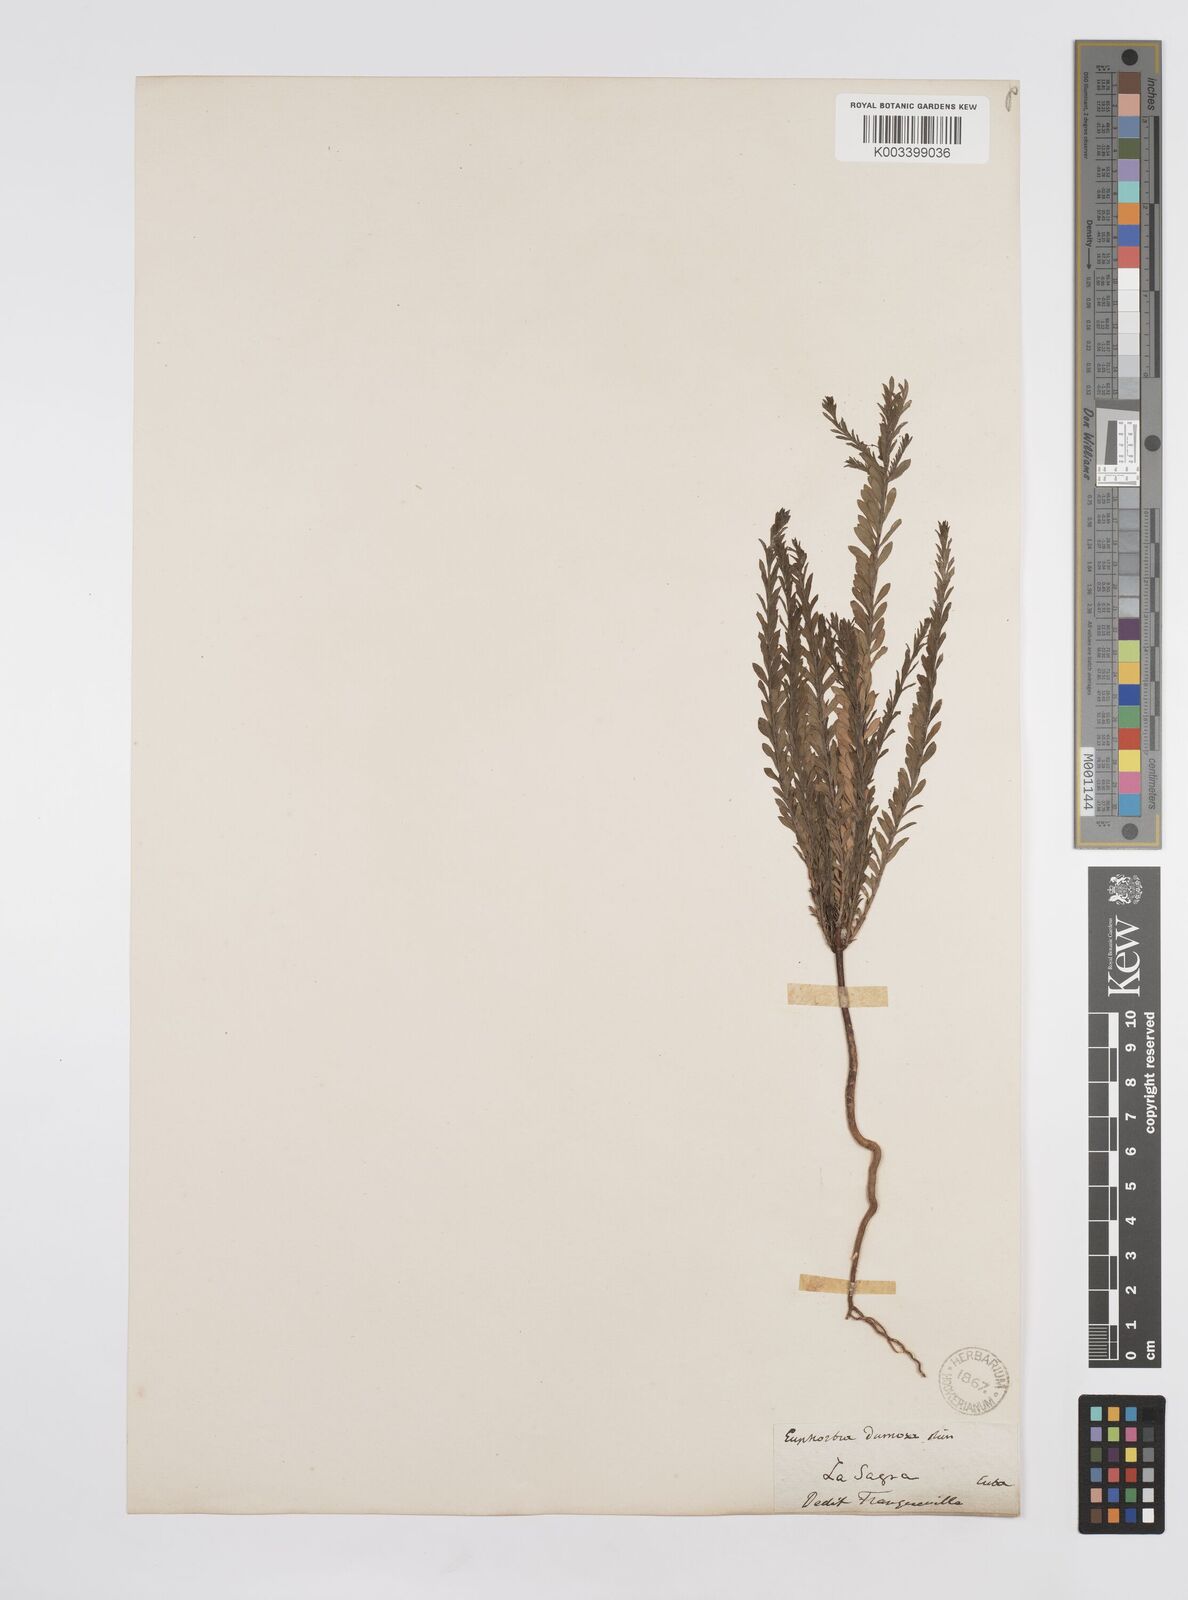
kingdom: Plantae
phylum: Tracheophyta
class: Magnoliopsida
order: Malpighiales
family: Euphorbiaceae
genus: Euphorbia
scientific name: Euphorbia trichotoma
